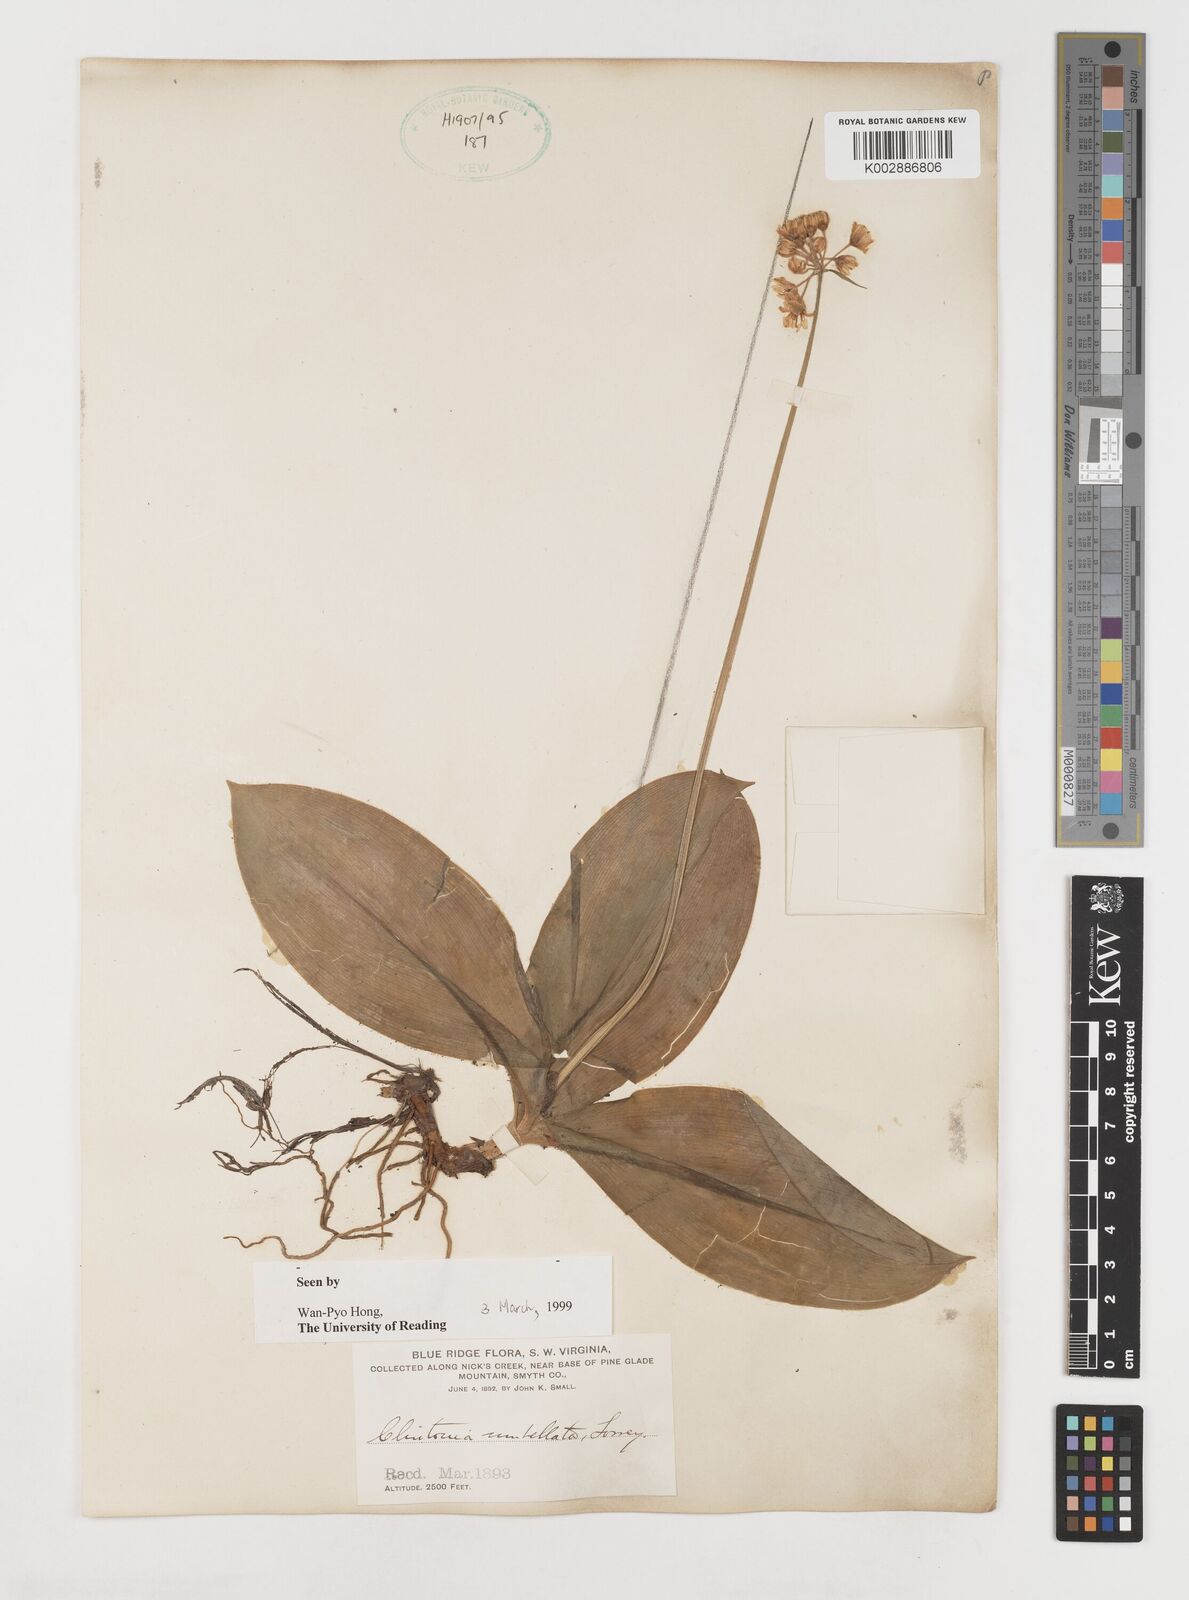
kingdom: Plantae
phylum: Tracheophyta
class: Liliopsida
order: Liliales
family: Liliaceae
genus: Clintonia
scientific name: Clintonia umbellulata
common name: Speckle wood-lily
